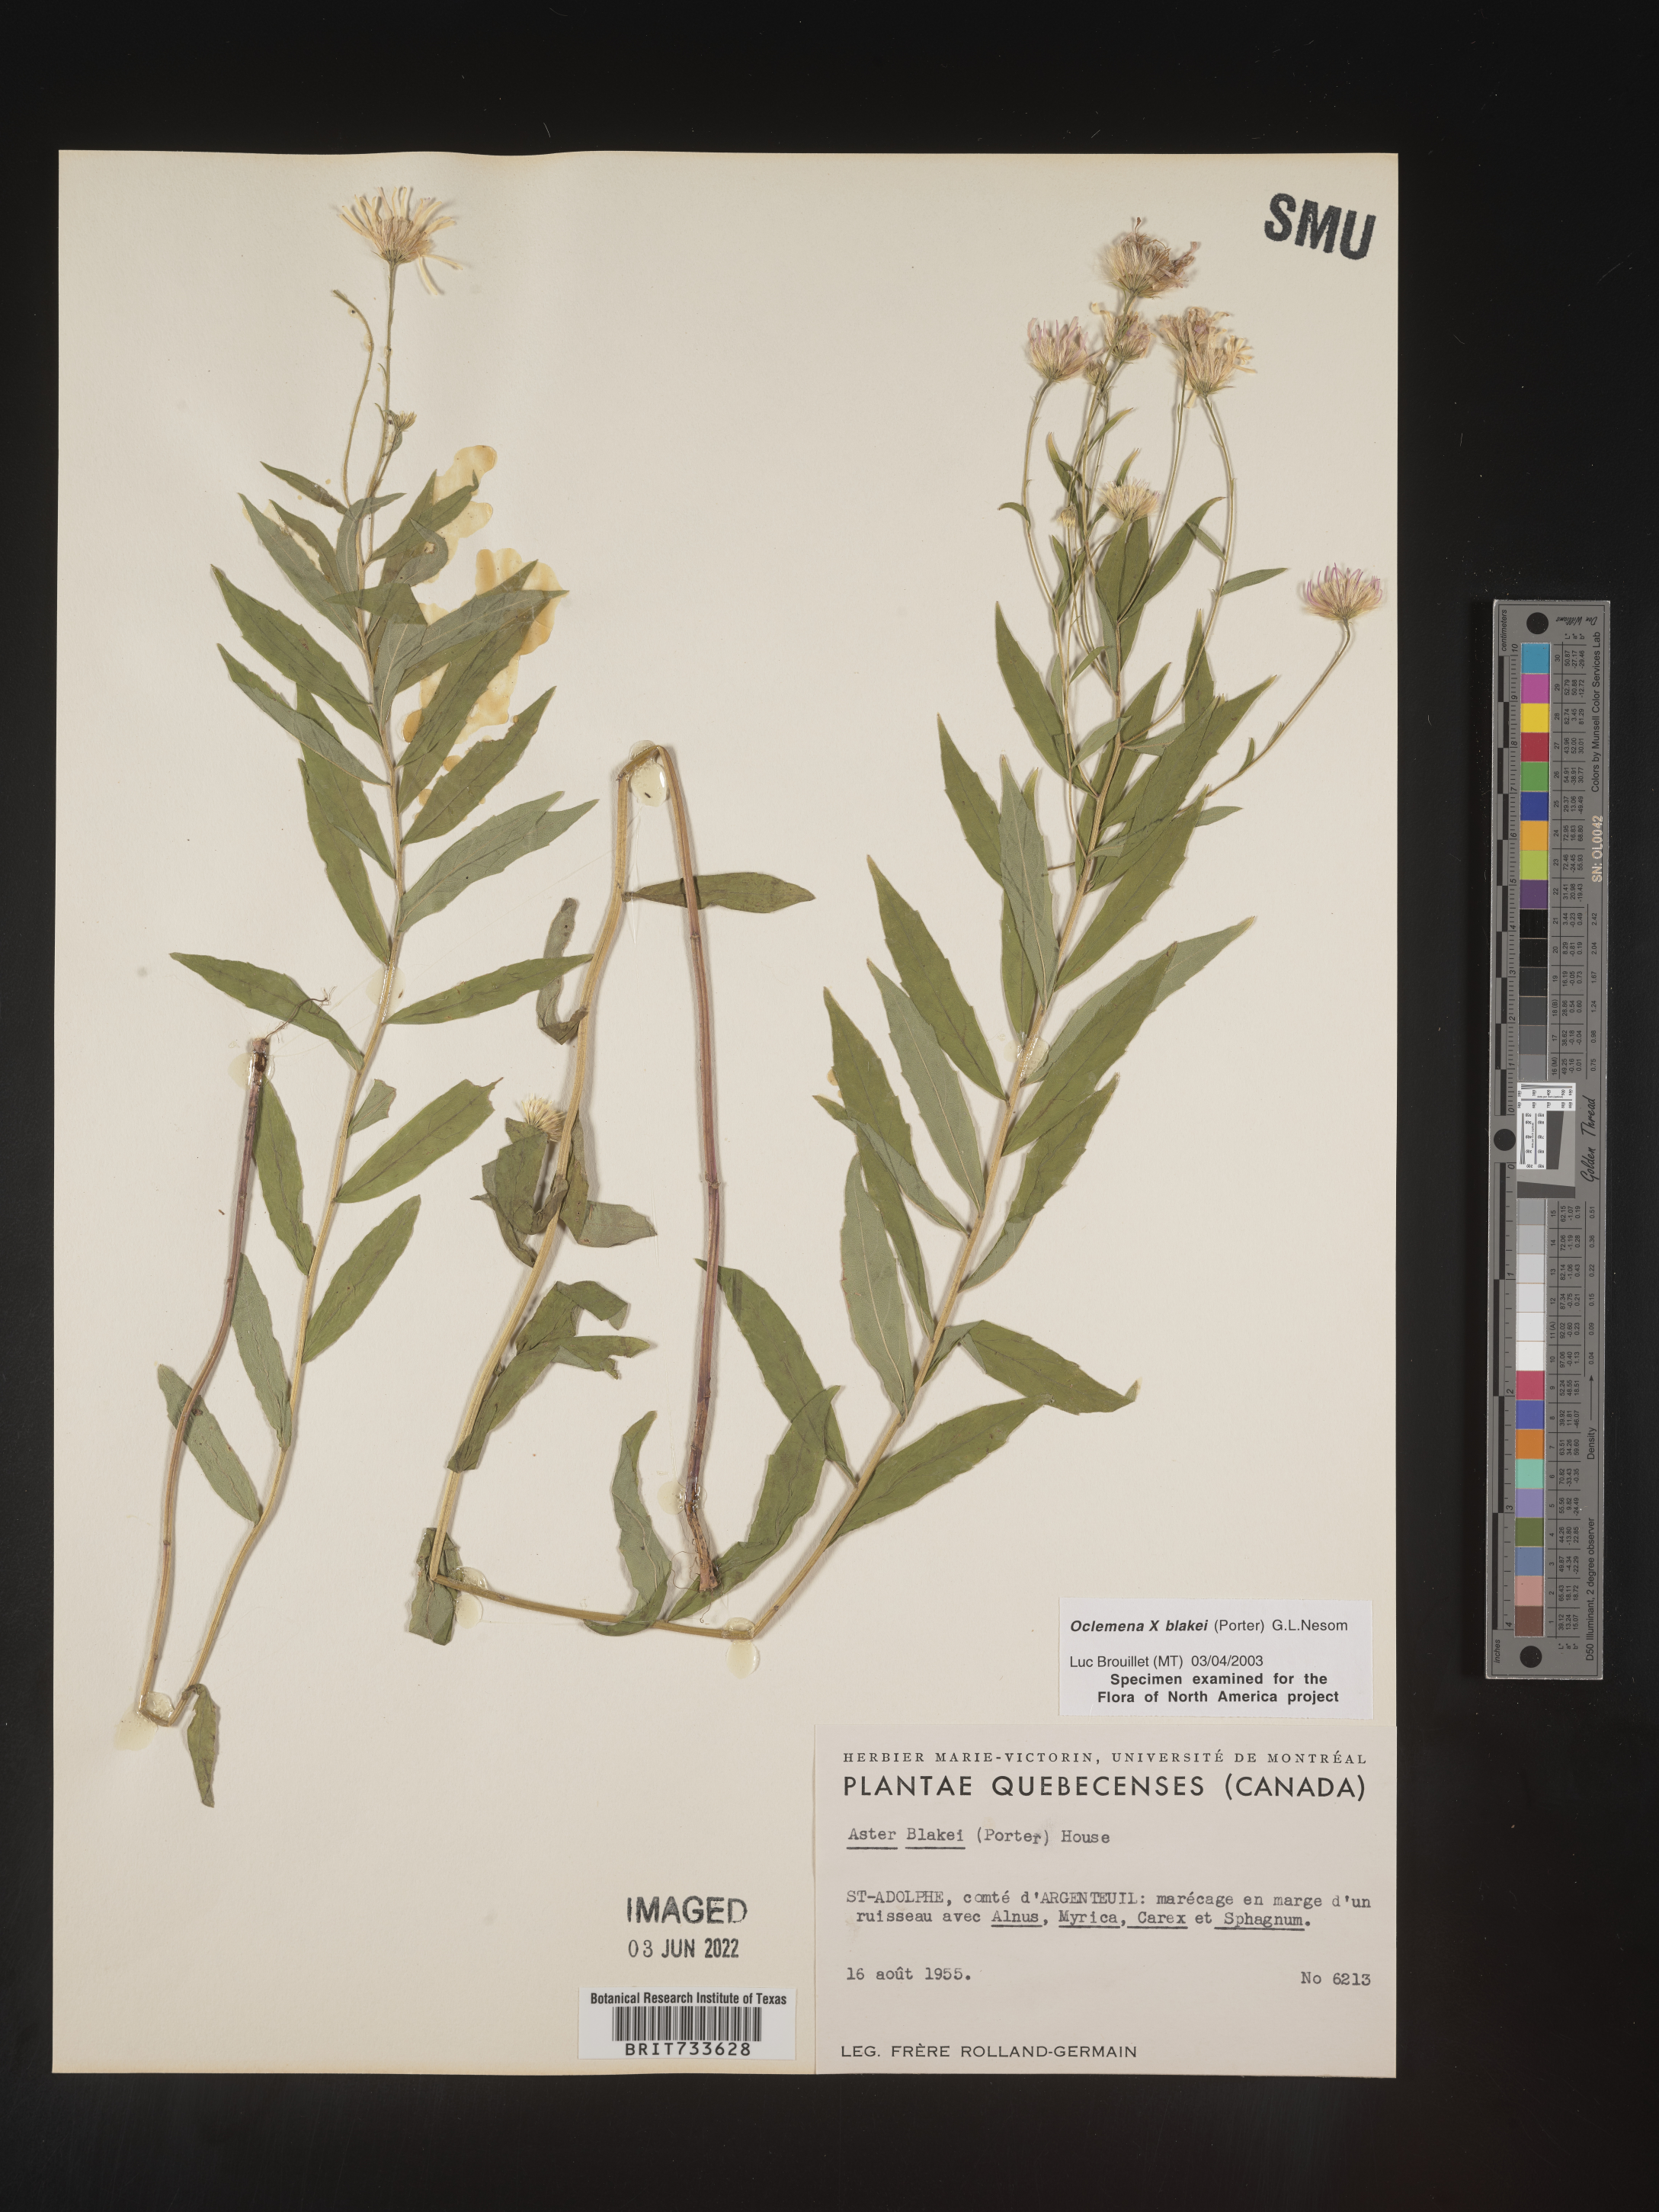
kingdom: Plantae
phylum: Tracheophyta
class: Magnoliopsida
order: Asterales
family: Asteraceae
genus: Oclemena
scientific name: Oclemena blakei
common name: Blake's aster
